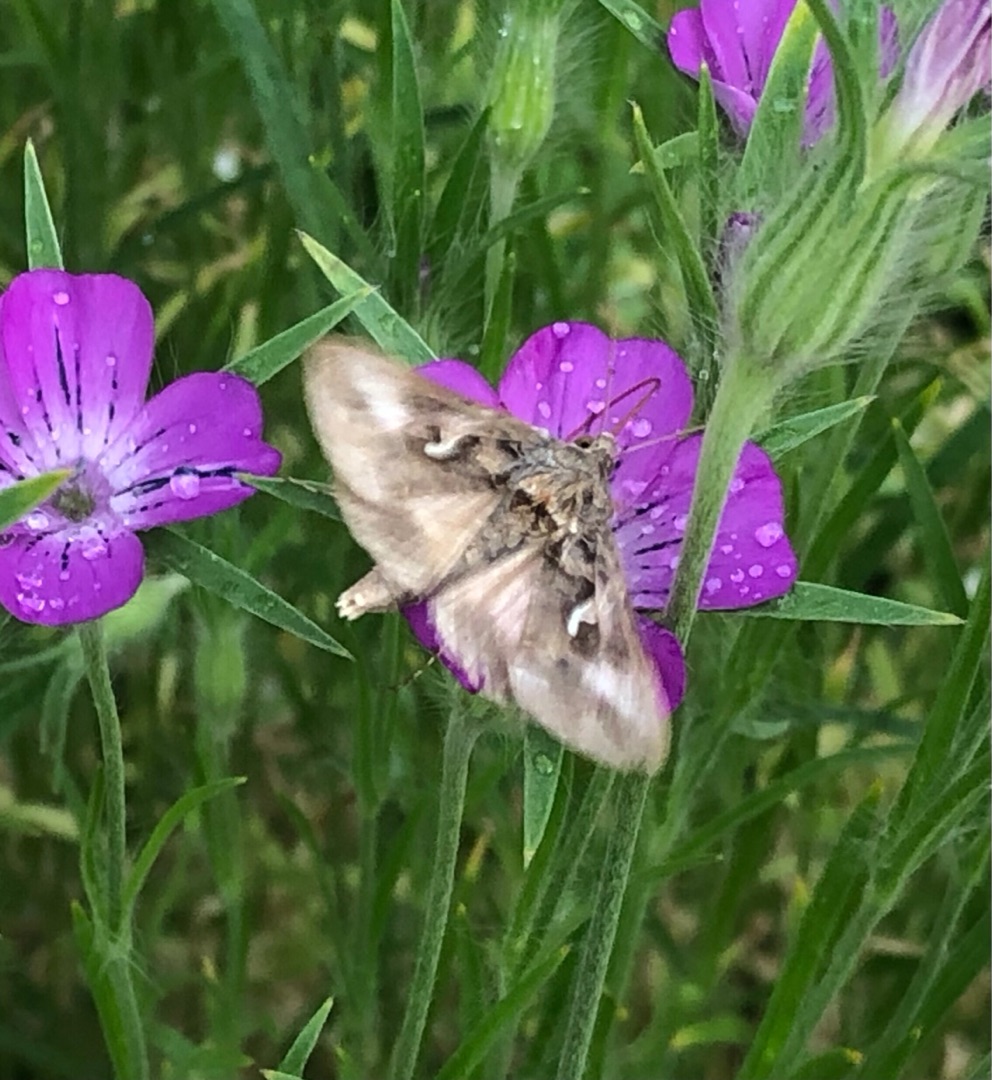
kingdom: Animalia
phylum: Arthropoda
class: Insecta
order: Lepidoptera
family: Noctuidae
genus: Autographa
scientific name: Autographa gamma
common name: Gammaugle
